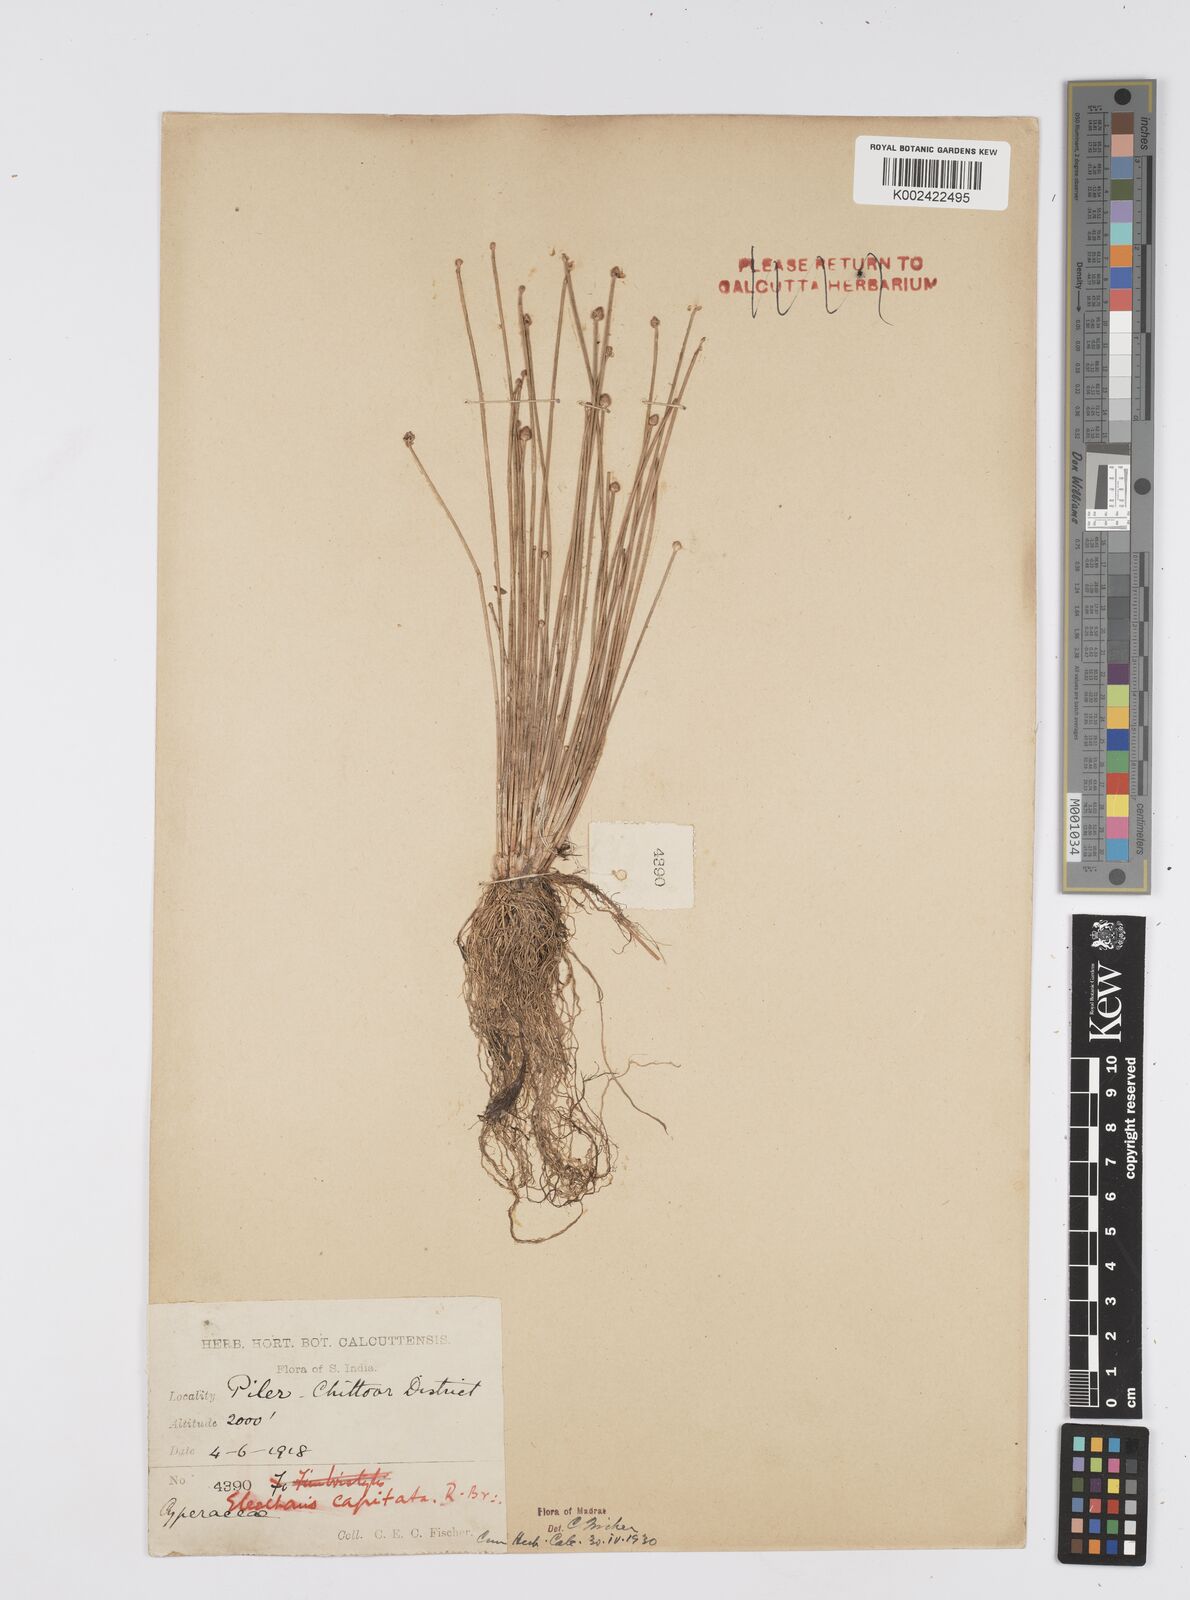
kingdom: Plantae
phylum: Tracheophyta
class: Liliopsida
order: Poales
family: Cyperaceae
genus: Eleocharis
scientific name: Eleocharis geniculata
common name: Canada spikesedge
